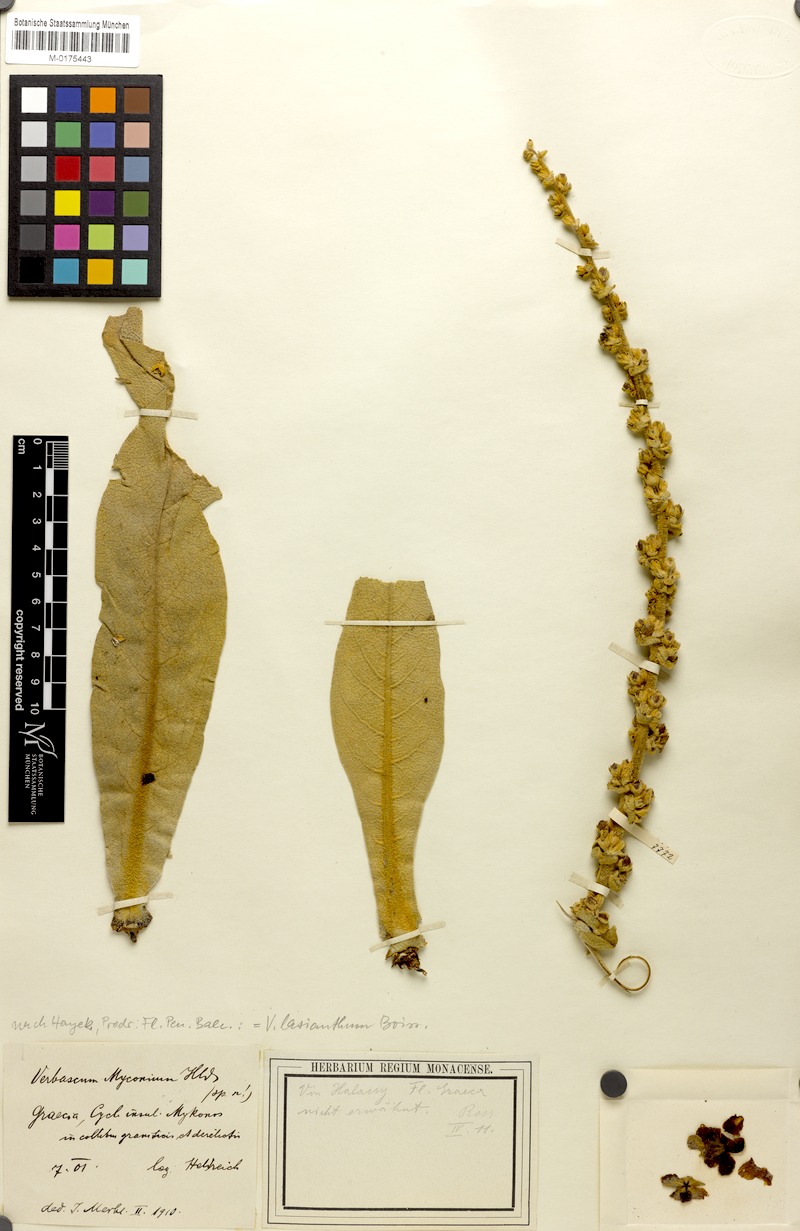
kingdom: Plantae
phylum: Tracheophyta
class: Magnoliopsida
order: Lamiales
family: Scrophulariaceae
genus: Verbascum
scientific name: Verbascum lasianthum
